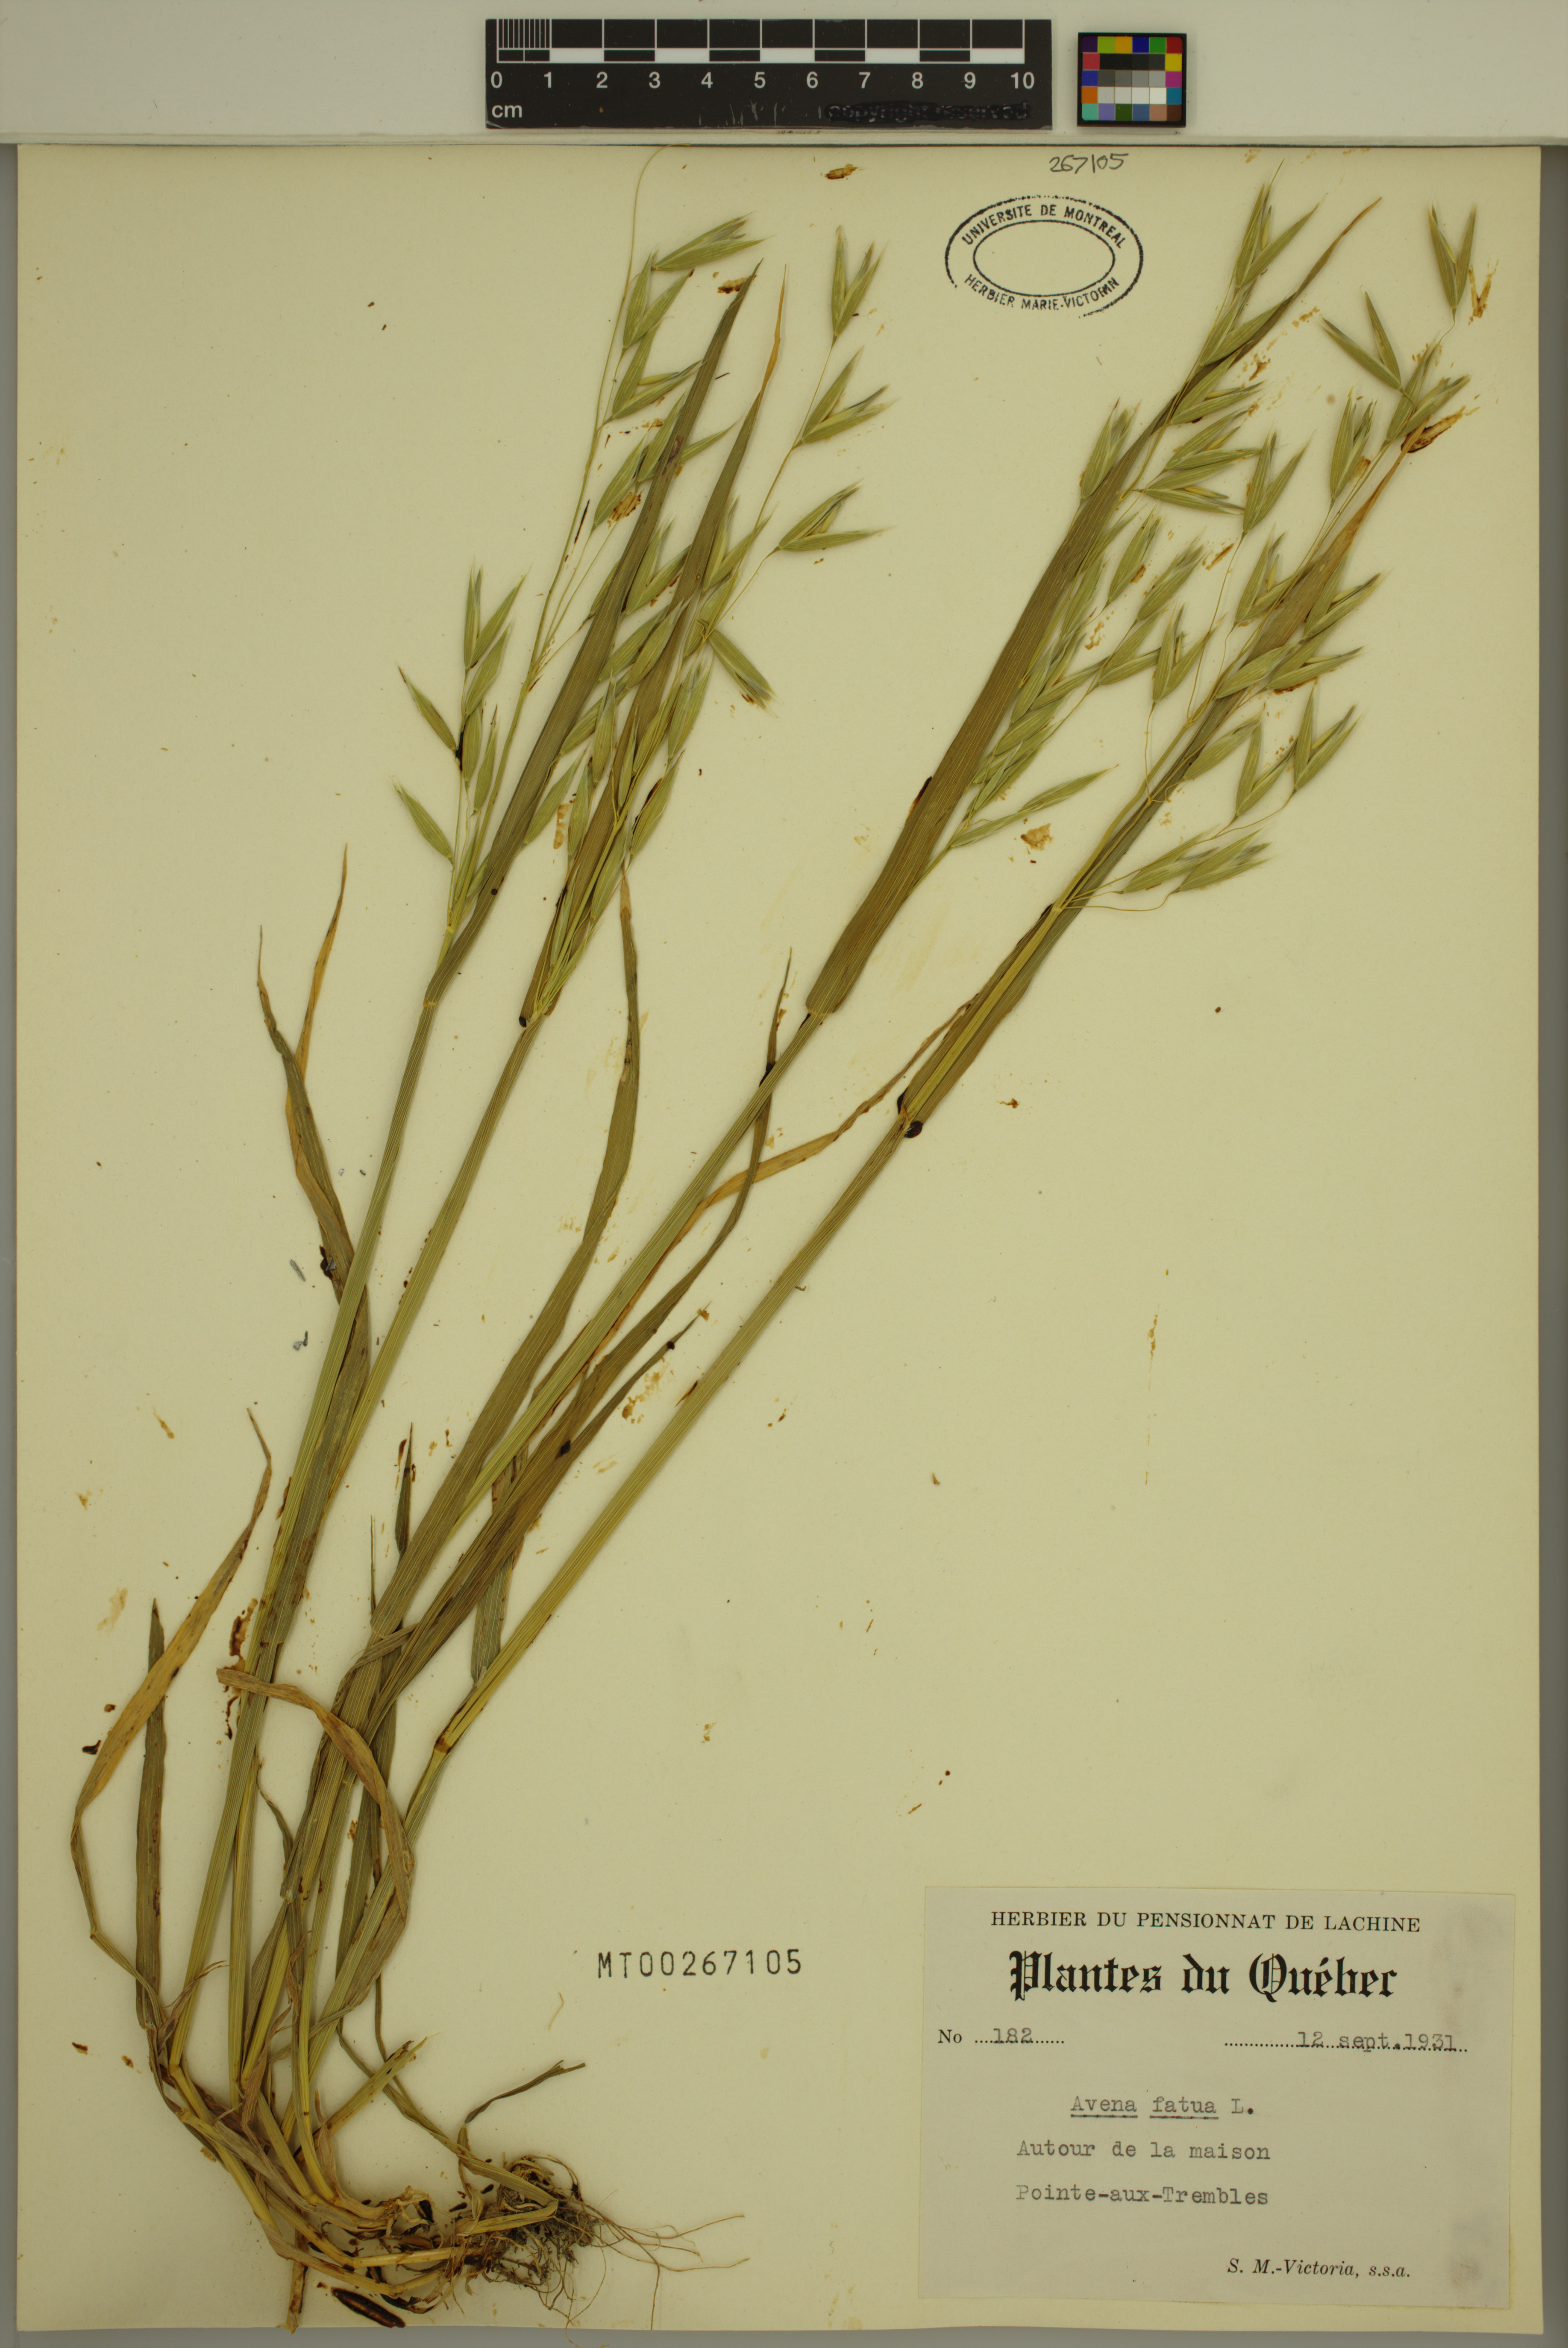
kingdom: Plantae
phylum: Tracheophyta
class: Liliopsida
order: Poales
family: Poaceae
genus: Avena
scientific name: Avena fatua
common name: Wild oat
